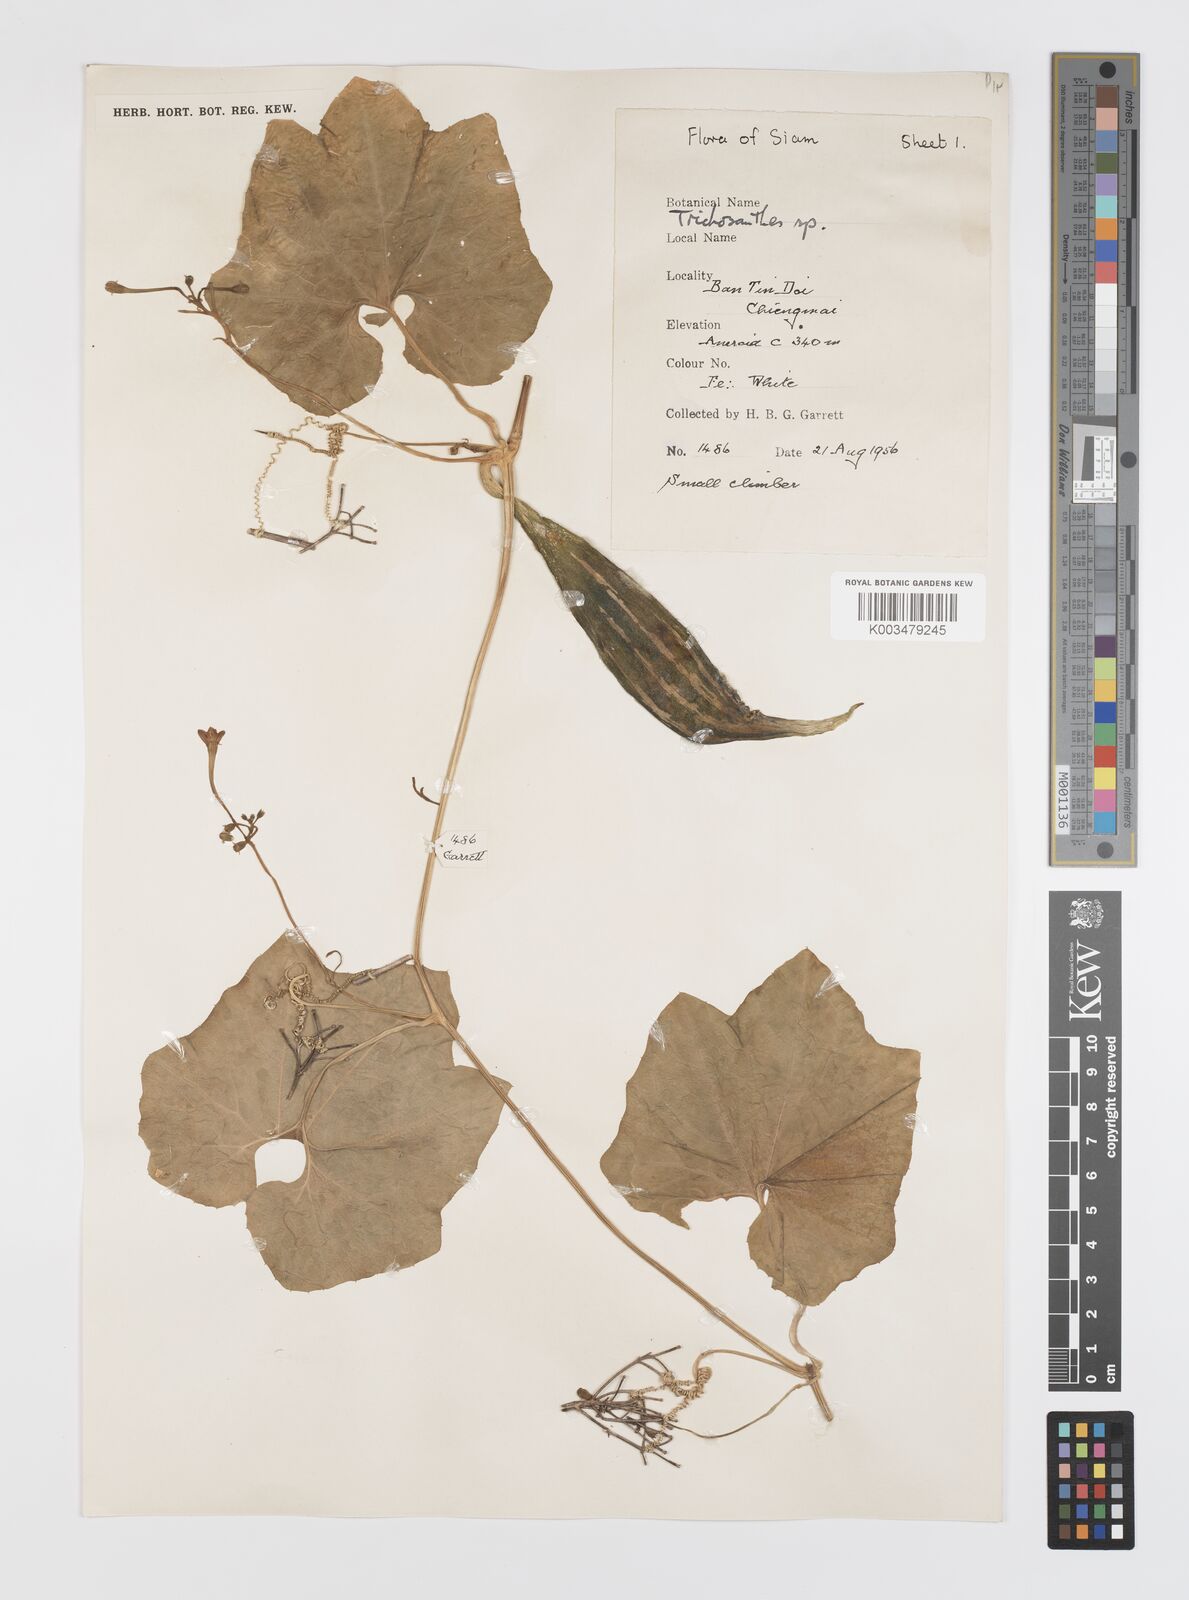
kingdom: Plantae
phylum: Tracheophyta
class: Magnoliopsida
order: Cucurbitales
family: Cucurbitaceae
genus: Trichosanthes
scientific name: Trichosanthes cucumerina
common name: Snakegourd
